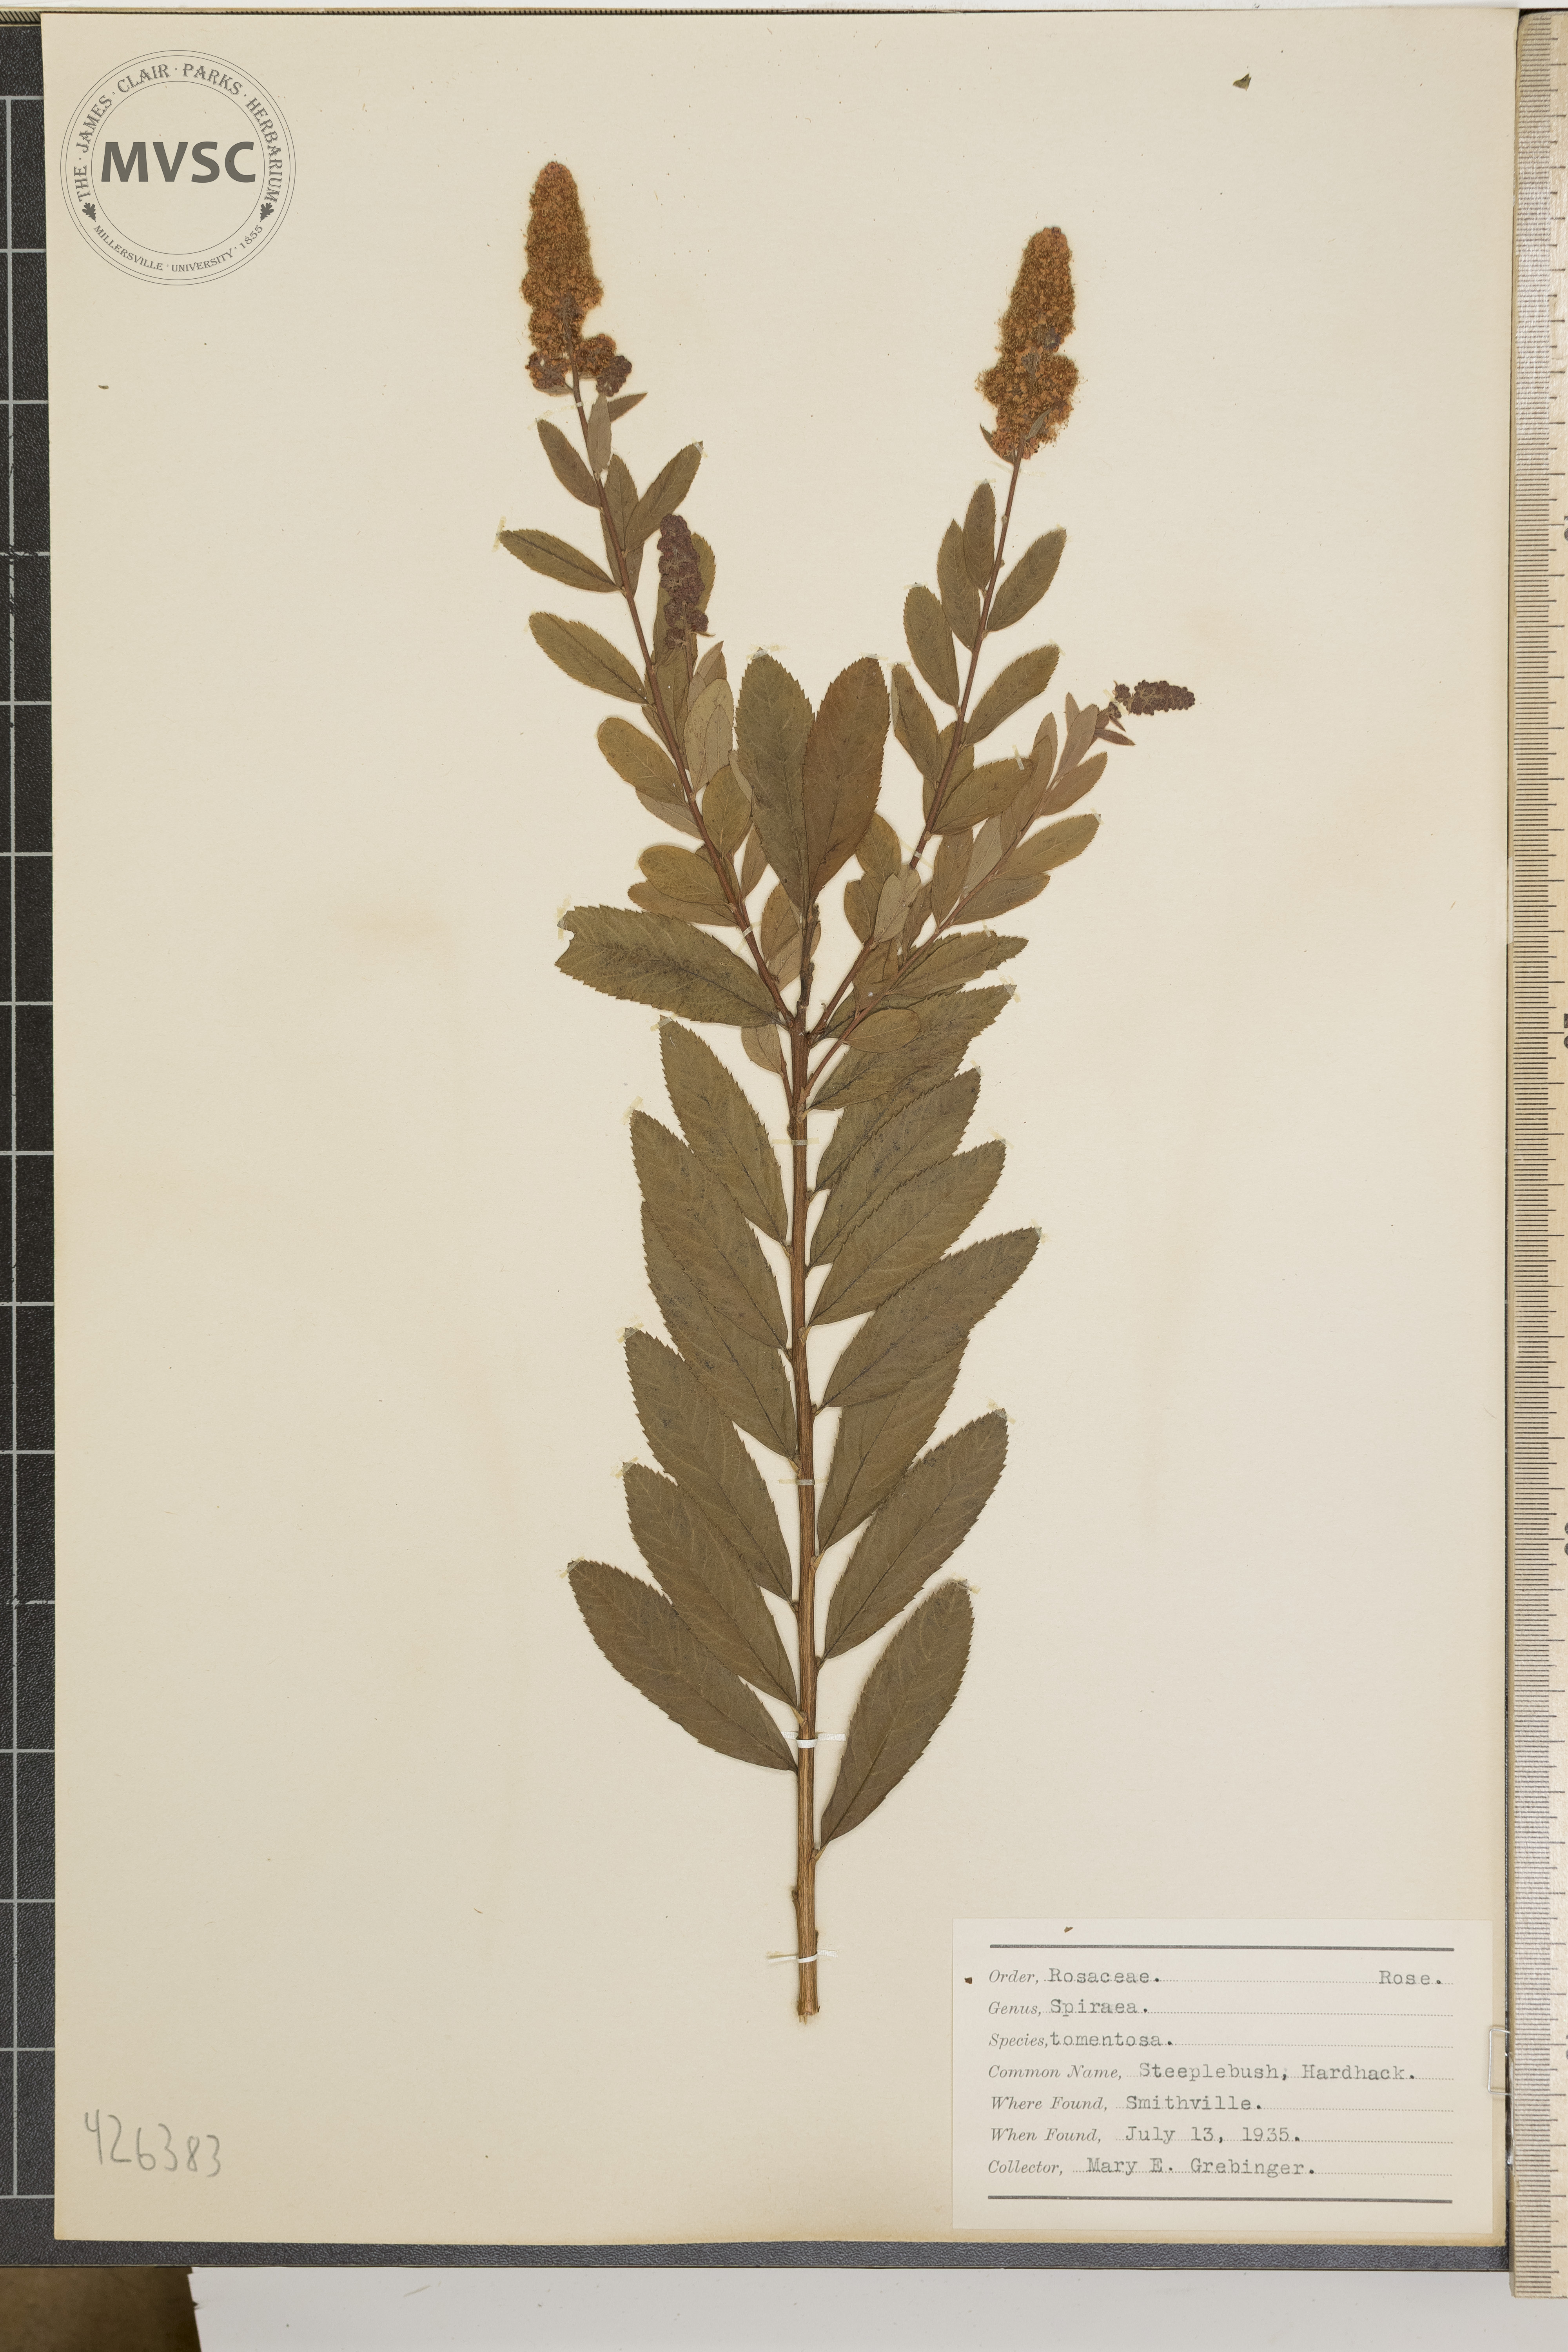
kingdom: Plantae
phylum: Tracheophyta
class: Magnoliopsida
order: Rosales
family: Rosaceae
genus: Spiraea
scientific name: Spiraea tomentosa
